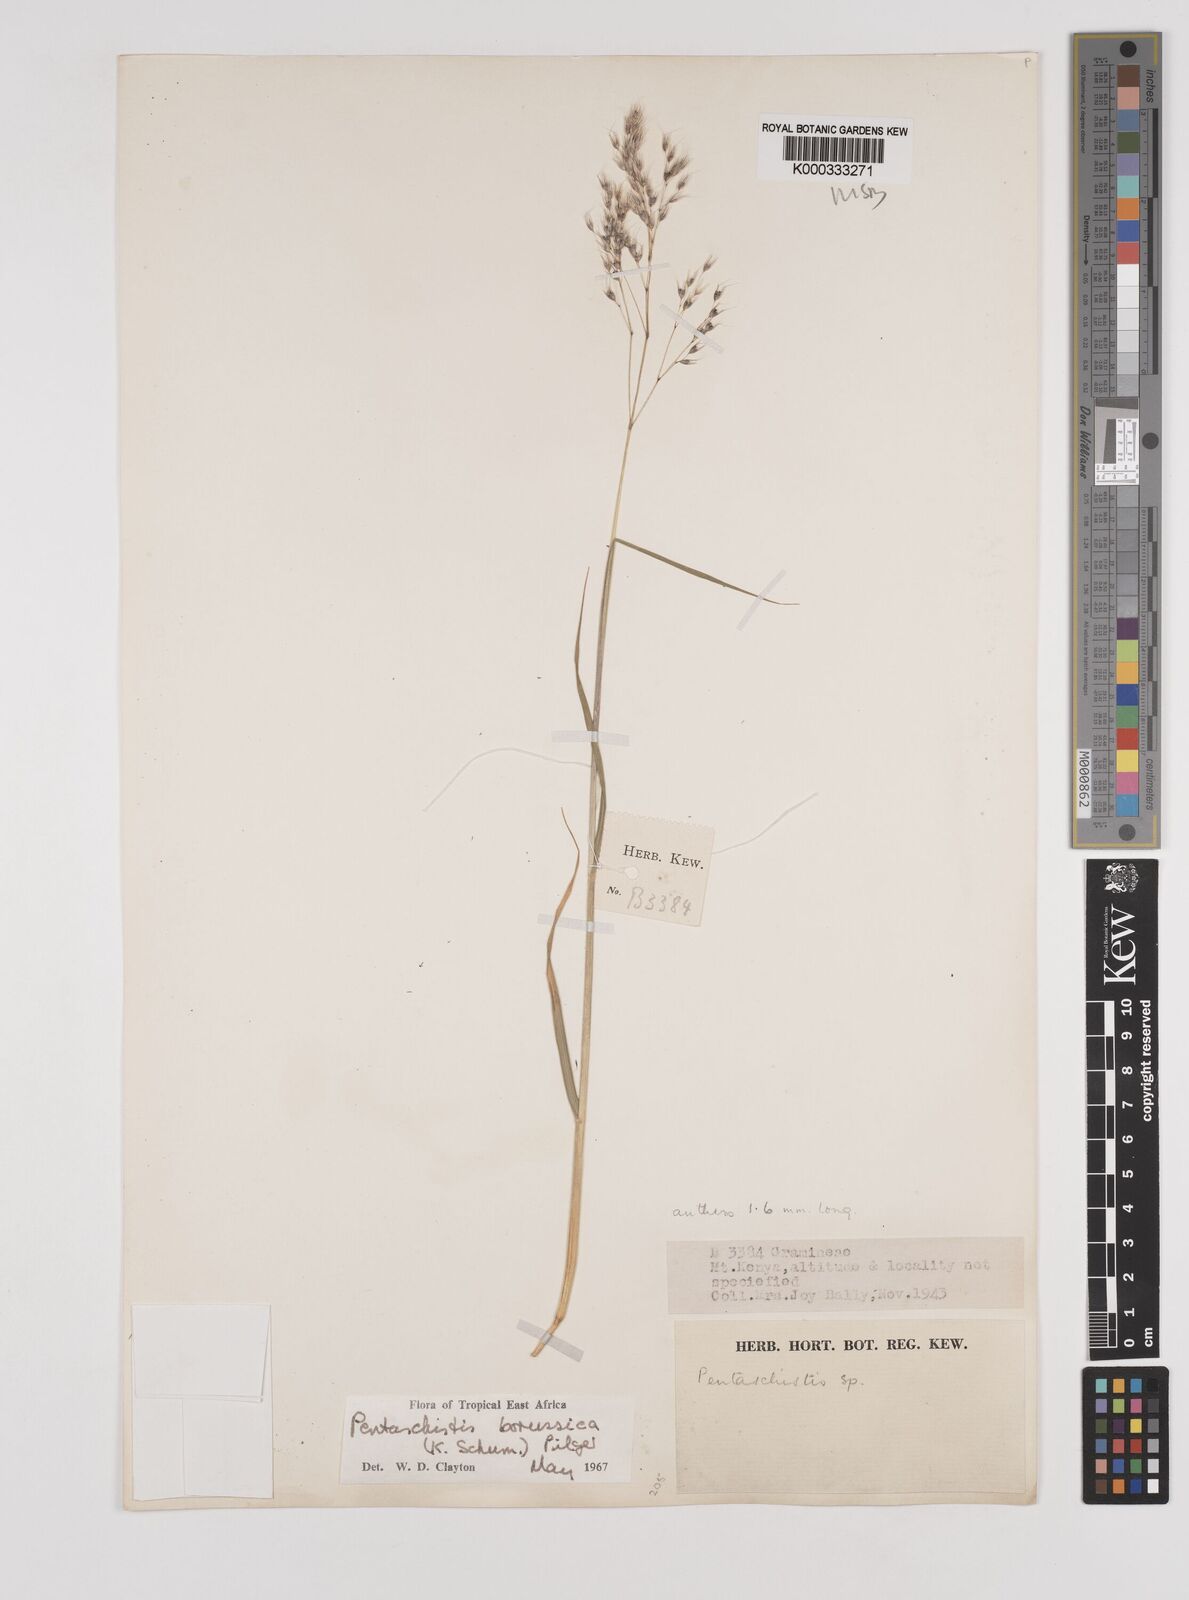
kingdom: Plantae
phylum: Tracheophyta
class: Liliopsida
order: Poales
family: Poaceae
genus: Pentameris
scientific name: Pentameris borussica
